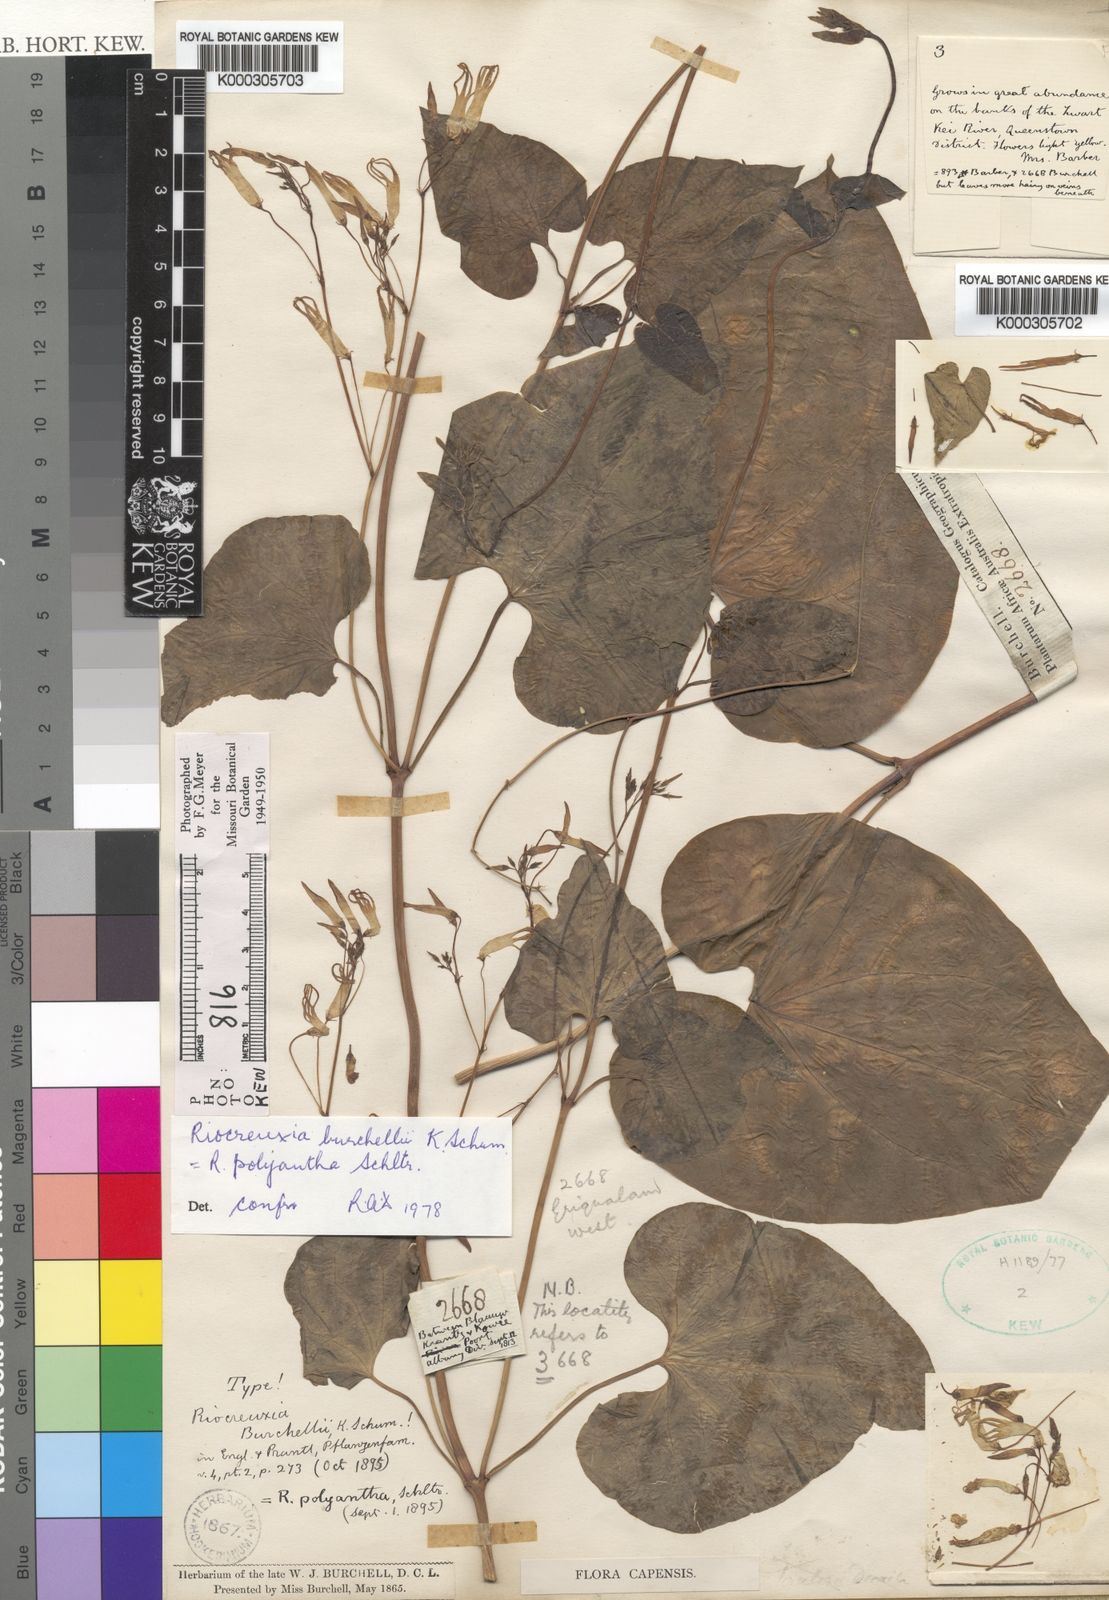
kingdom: Plantae
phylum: Tracheophyta
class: Magnoliopsida
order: Gentianales
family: Apocynaceae
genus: Riocreuxia
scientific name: Riocreuxia polyantha
